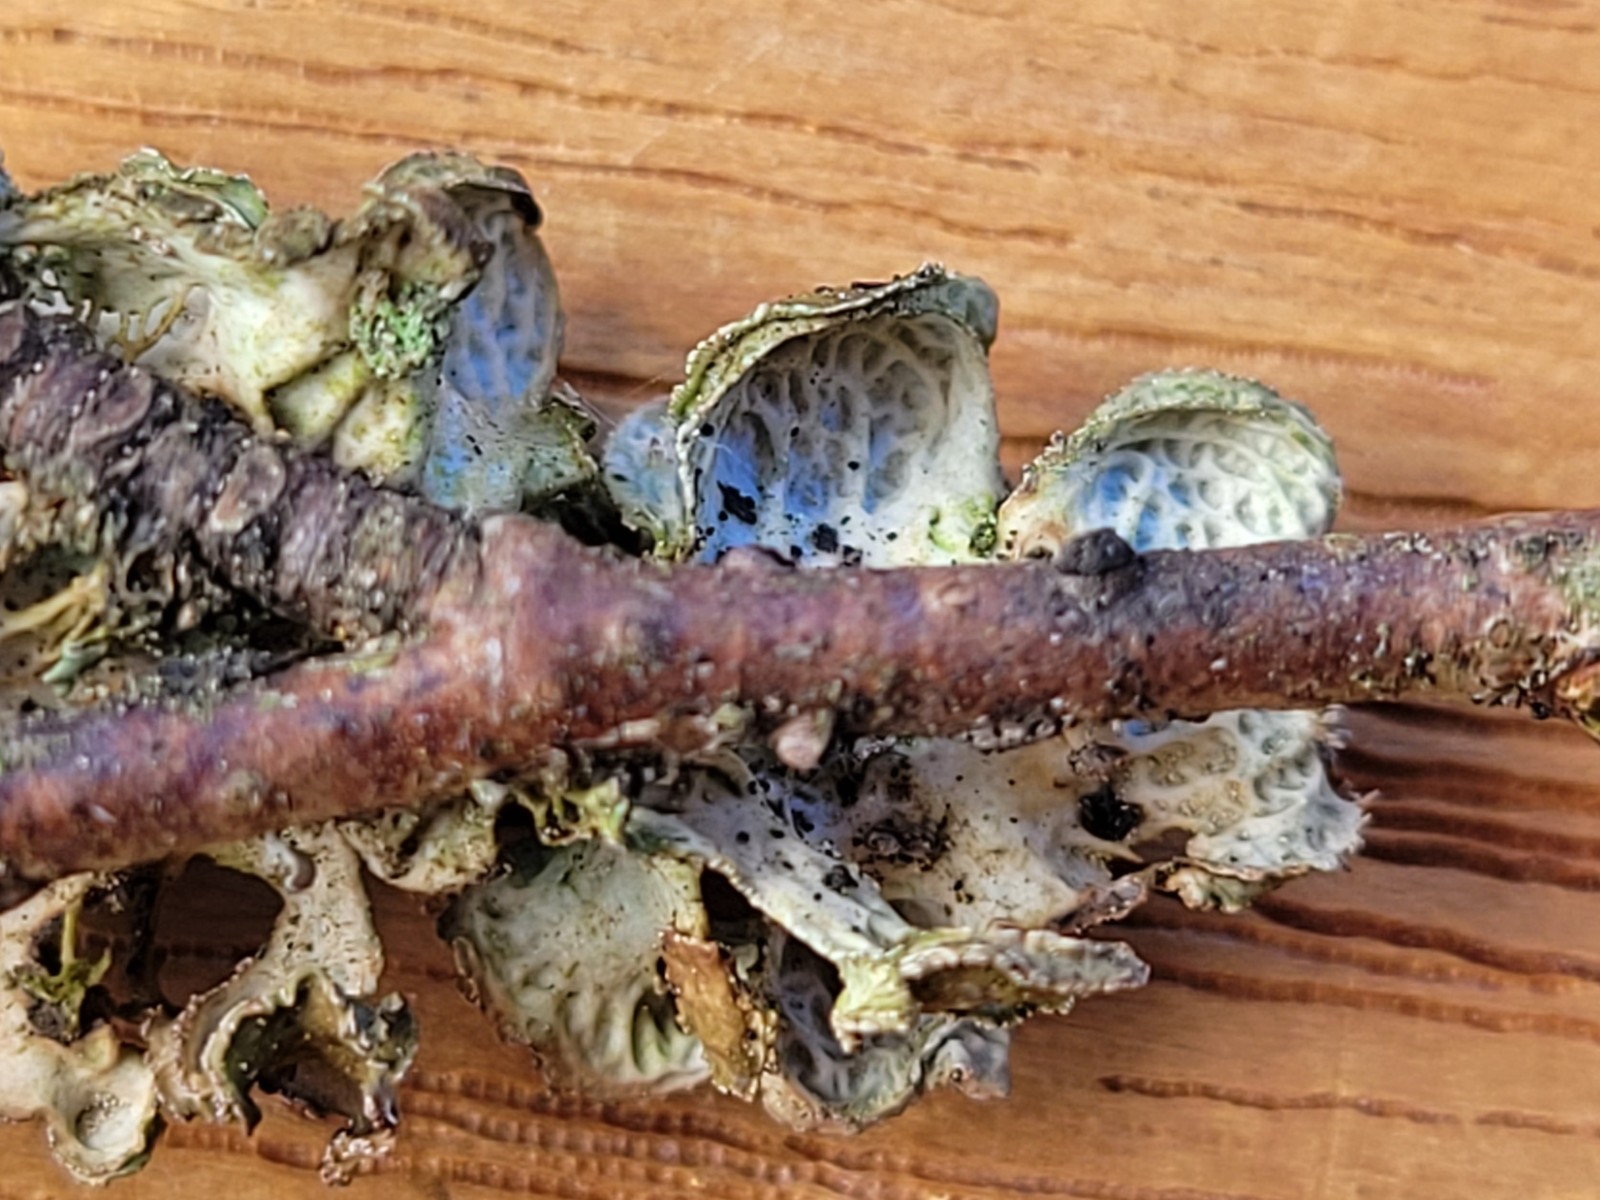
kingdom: Fungi
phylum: Ascomycota
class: Lecanoromycetes
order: Lecanorales
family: Parmeliaceae
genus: Cetraria
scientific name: Cetraria sepincola
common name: tue-kruslav
